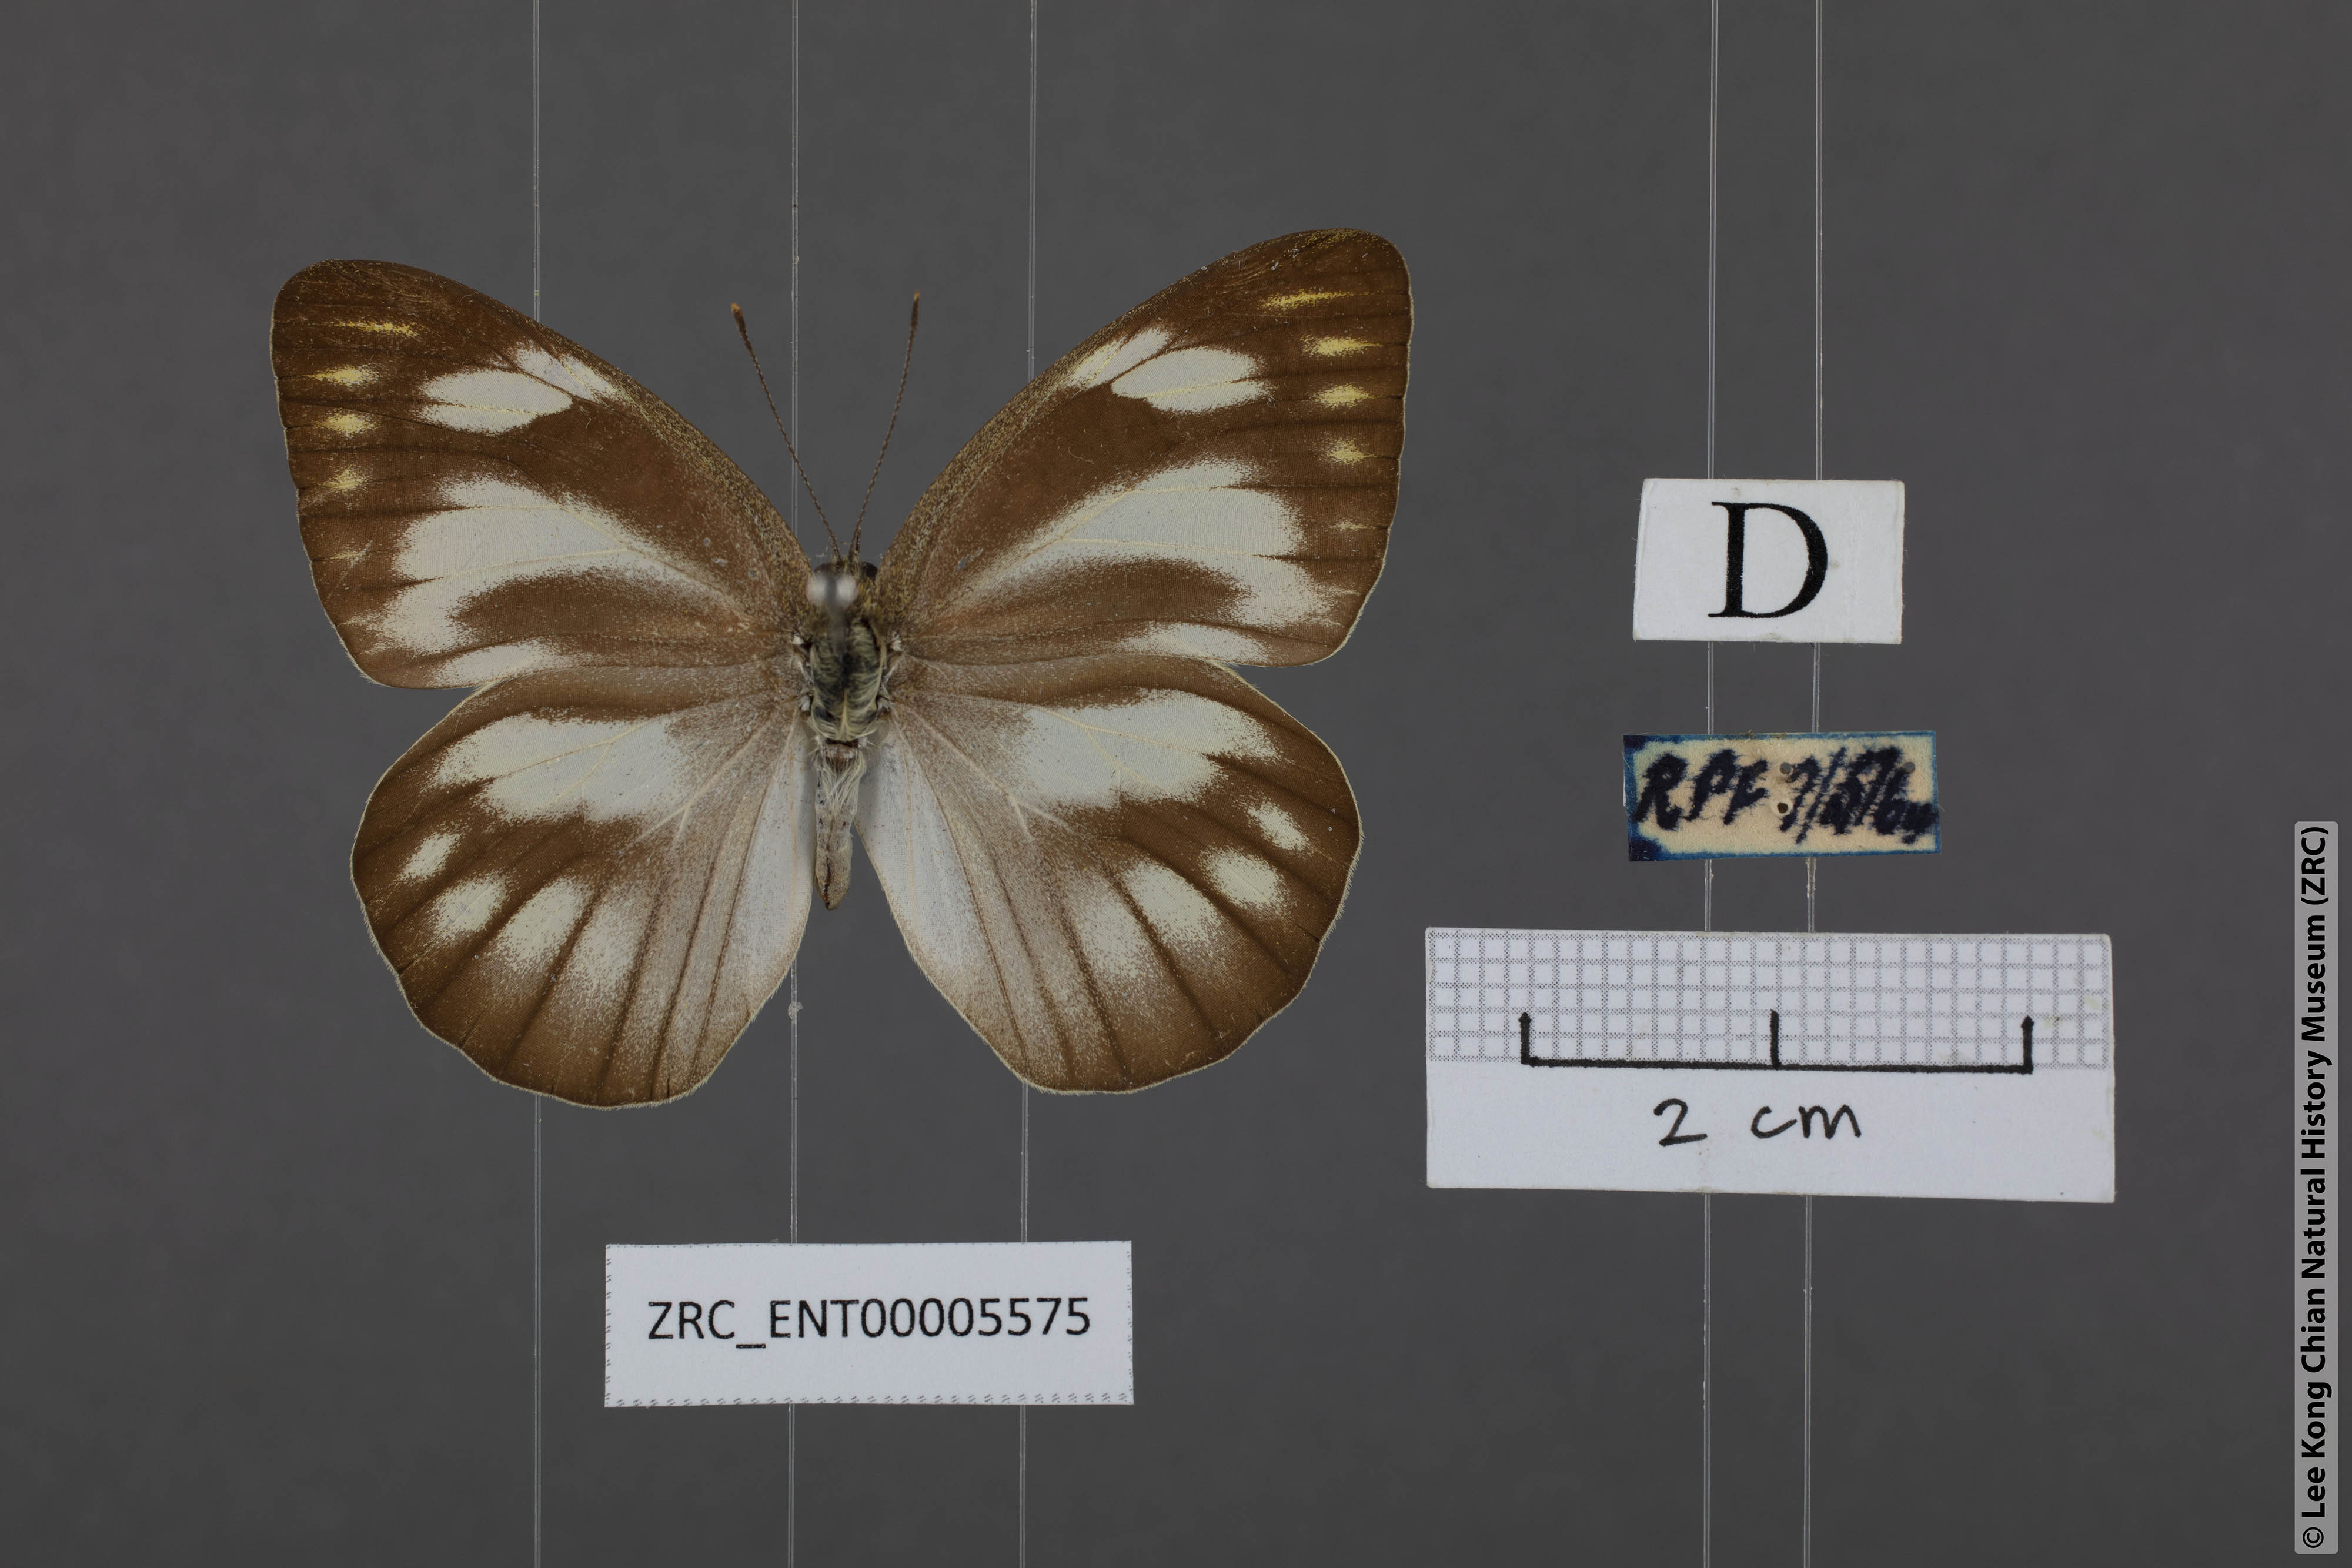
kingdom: Animalia
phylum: Arthropoda
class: Insecta
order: Lepidoptera
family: Pieridae
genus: Appias
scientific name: Appias libythea
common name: Striped albatross
